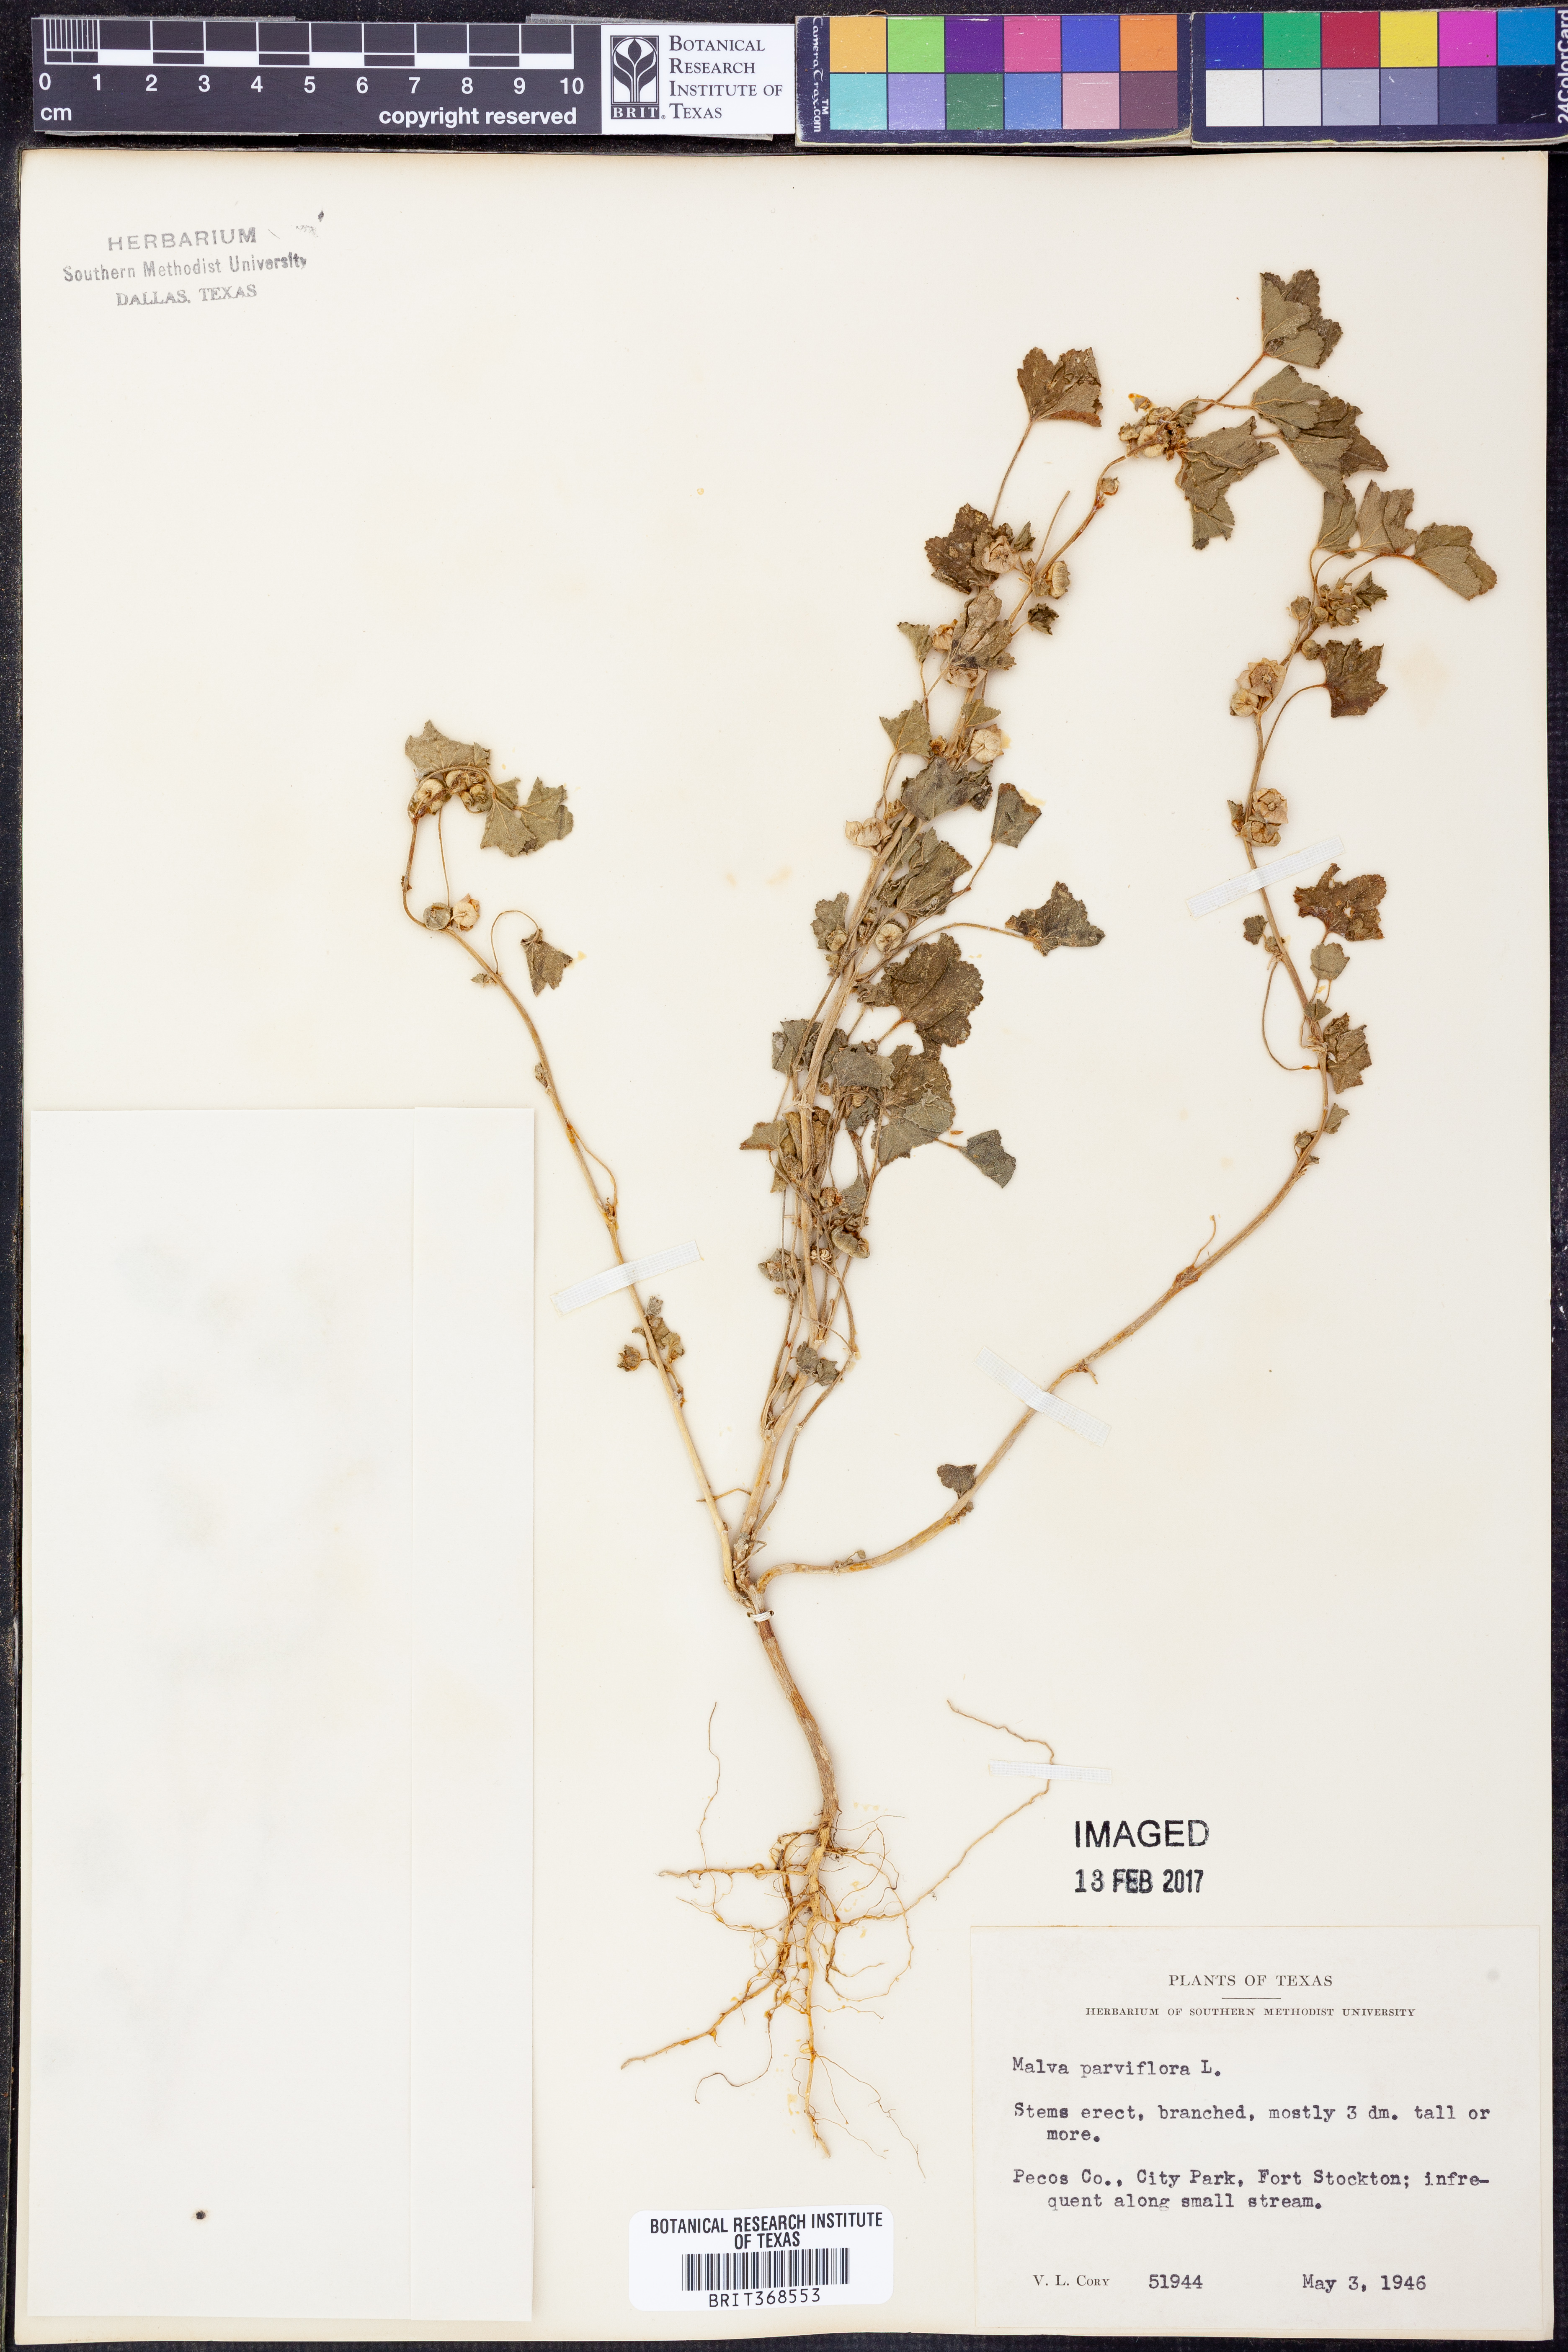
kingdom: Plantae
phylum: Tracheophyta
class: Magnoliopsida
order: Malvales
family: Malvaceae
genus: Malva
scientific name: Malva parviflora
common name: Least mallow
